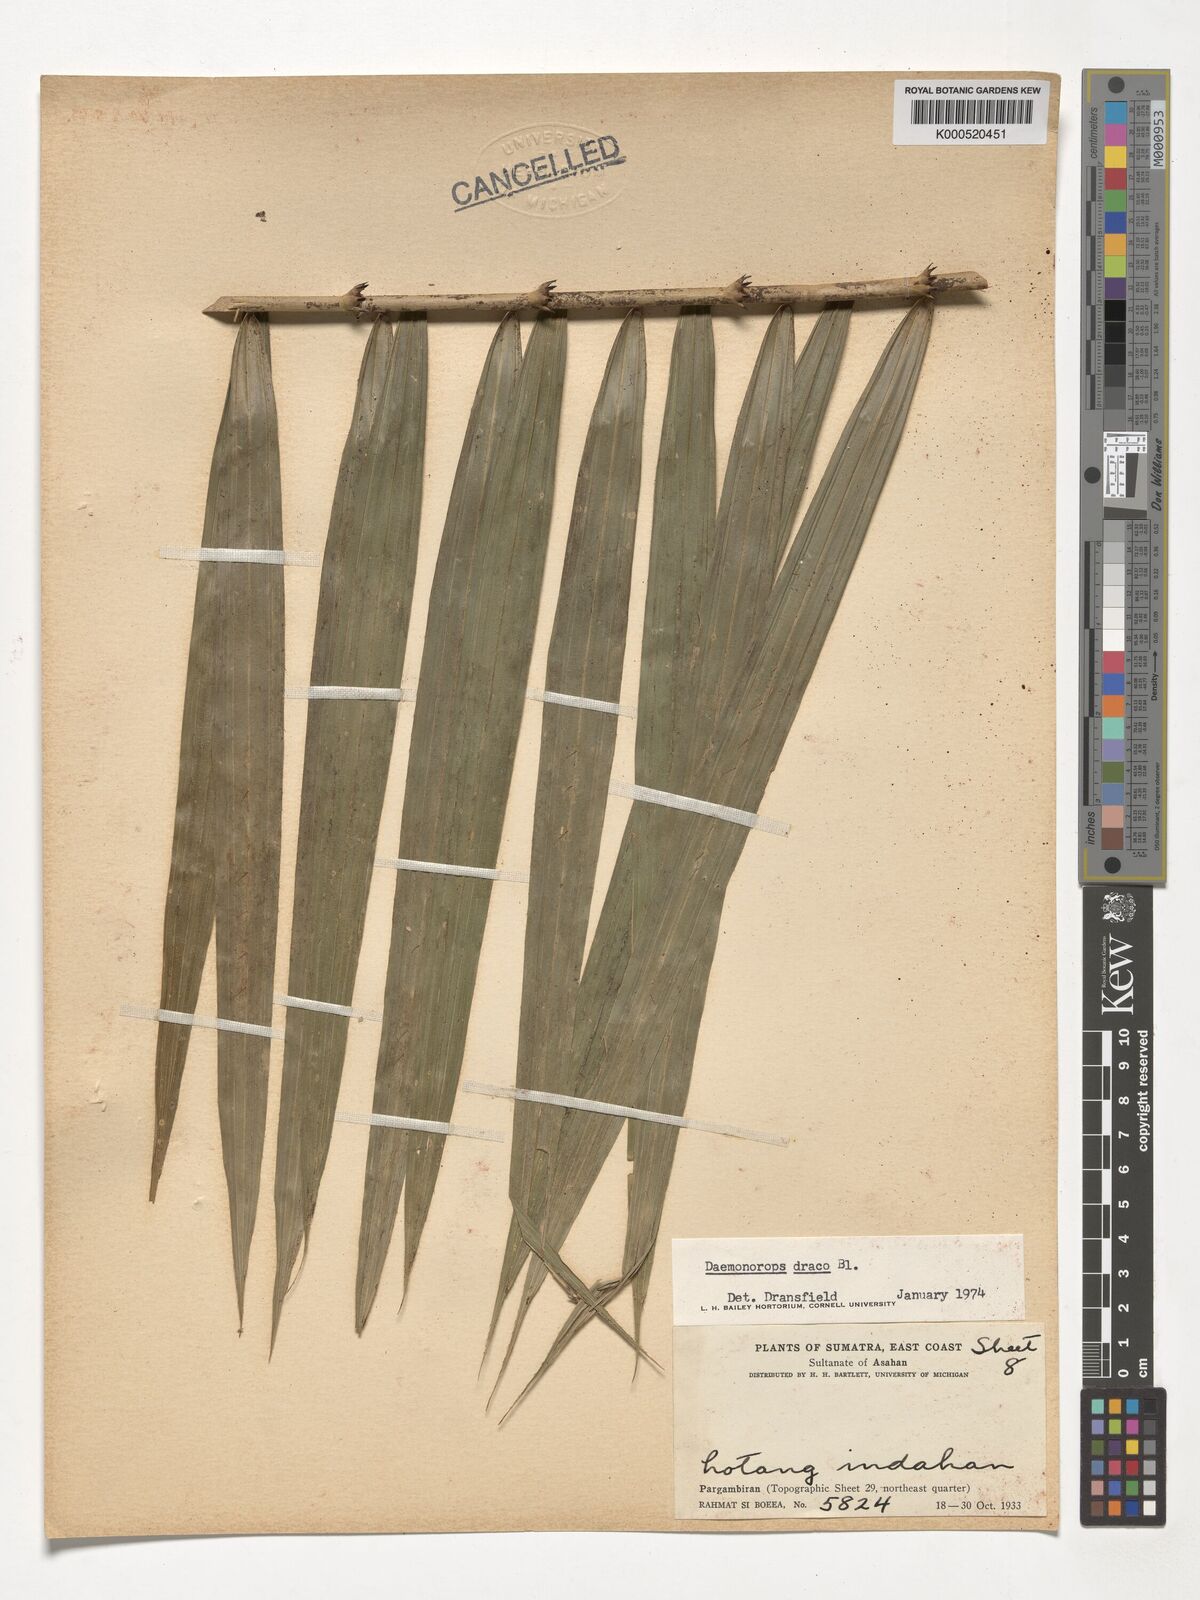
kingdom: Plantae
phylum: Tracheophyta
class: Liliopsida
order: Arecales
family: Arecaceae
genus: Calamus
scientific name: Calamus draco
